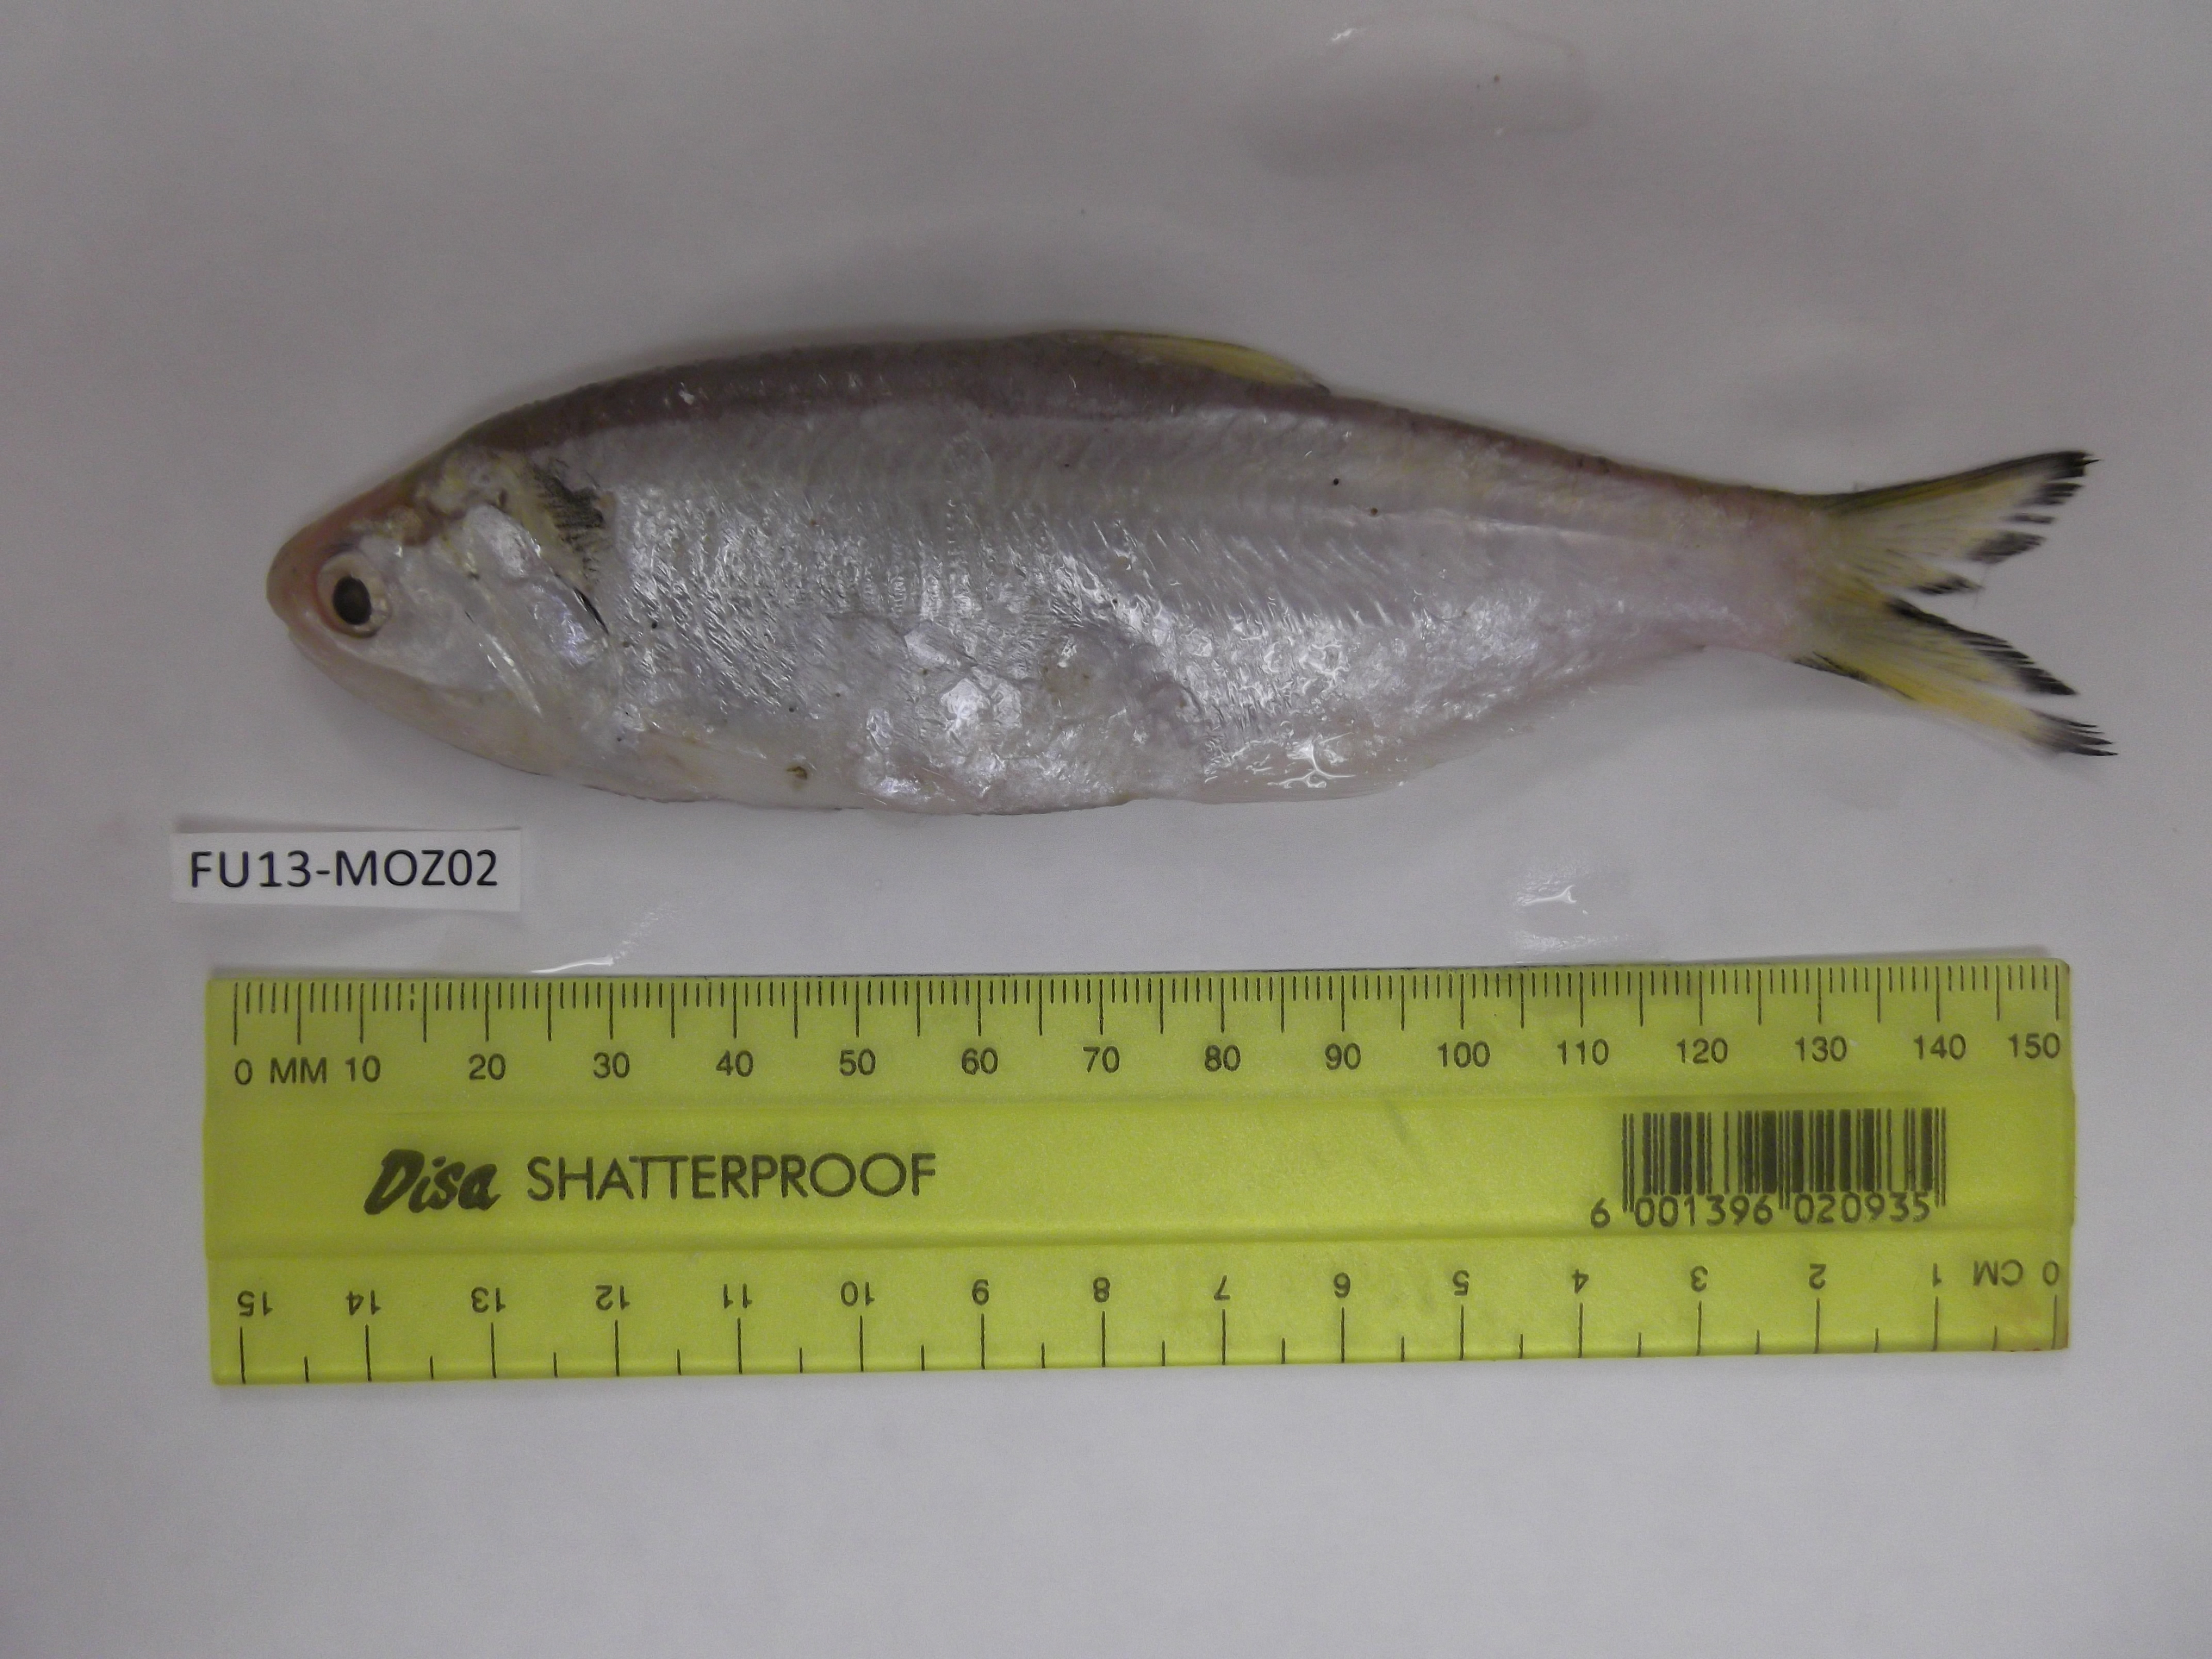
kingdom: Animalia
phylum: Chordata
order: Clupeiformes
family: Engraulidae
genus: Thryssa
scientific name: Thryssa baelama
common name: Baelama anchovy
